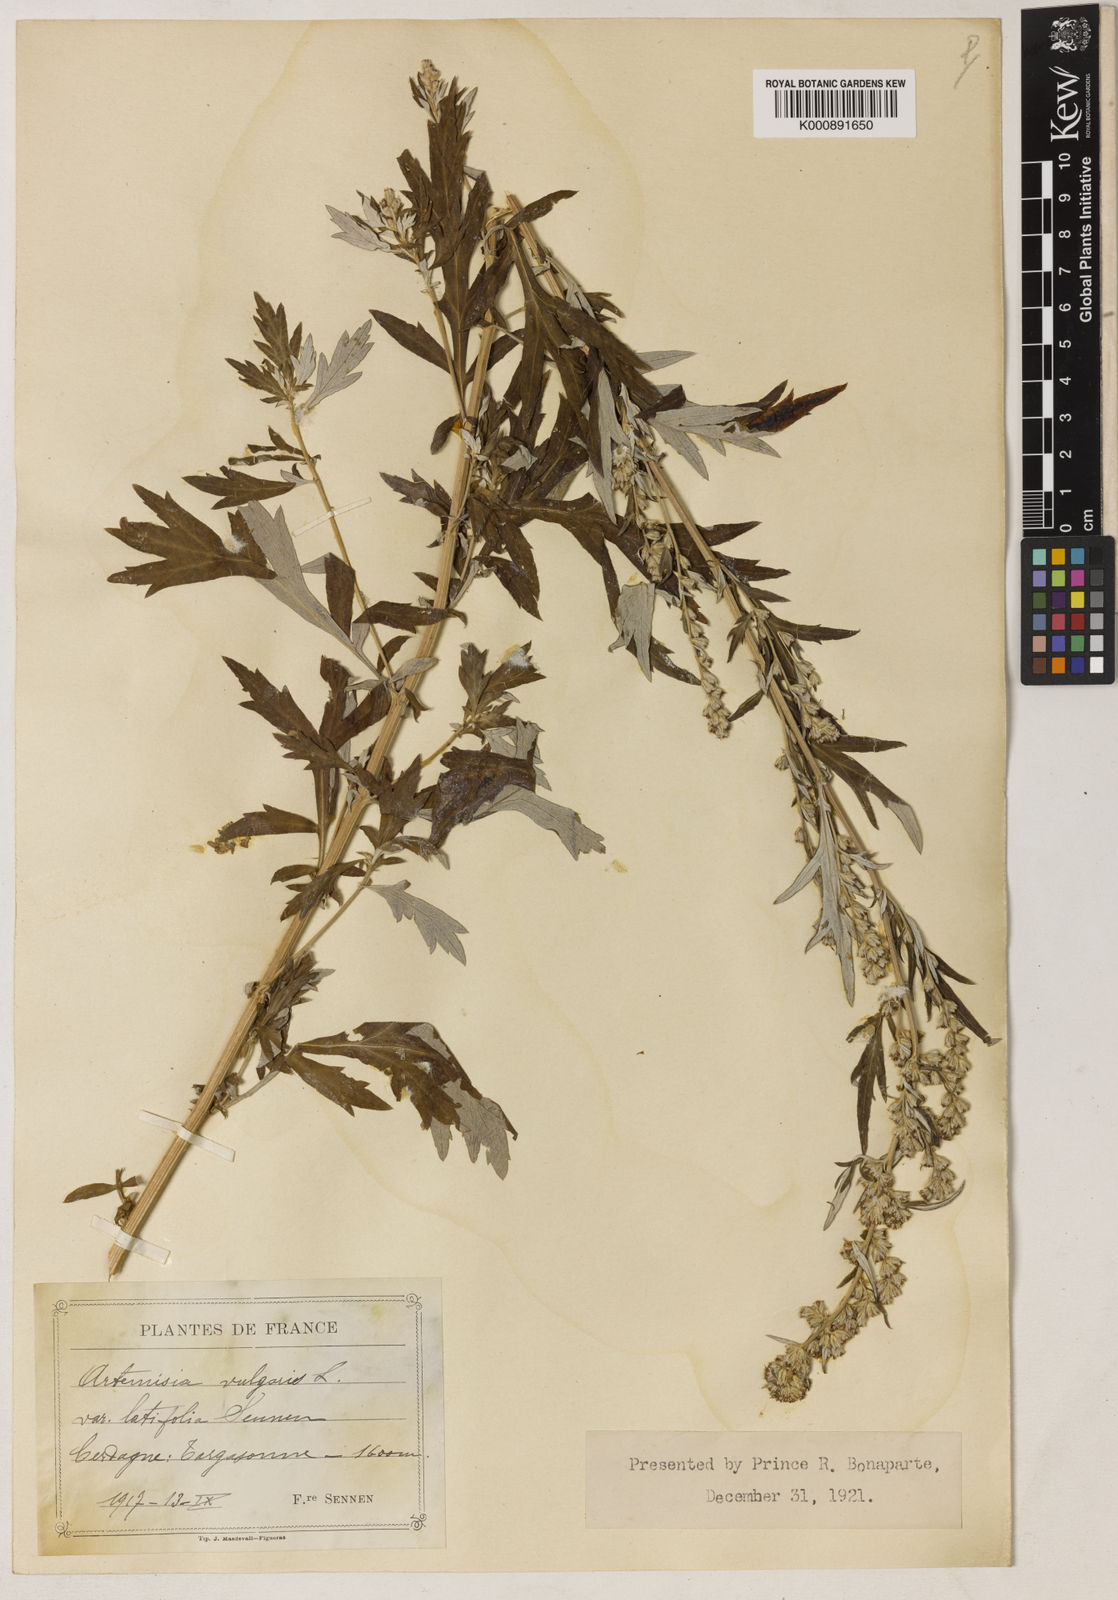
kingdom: Plantae
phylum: Tracheophyta
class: Magnoliopsida
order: Asterales
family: Asteraceae
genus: Artemisia
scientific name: Artemisia vulgaris
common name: Mugwort
